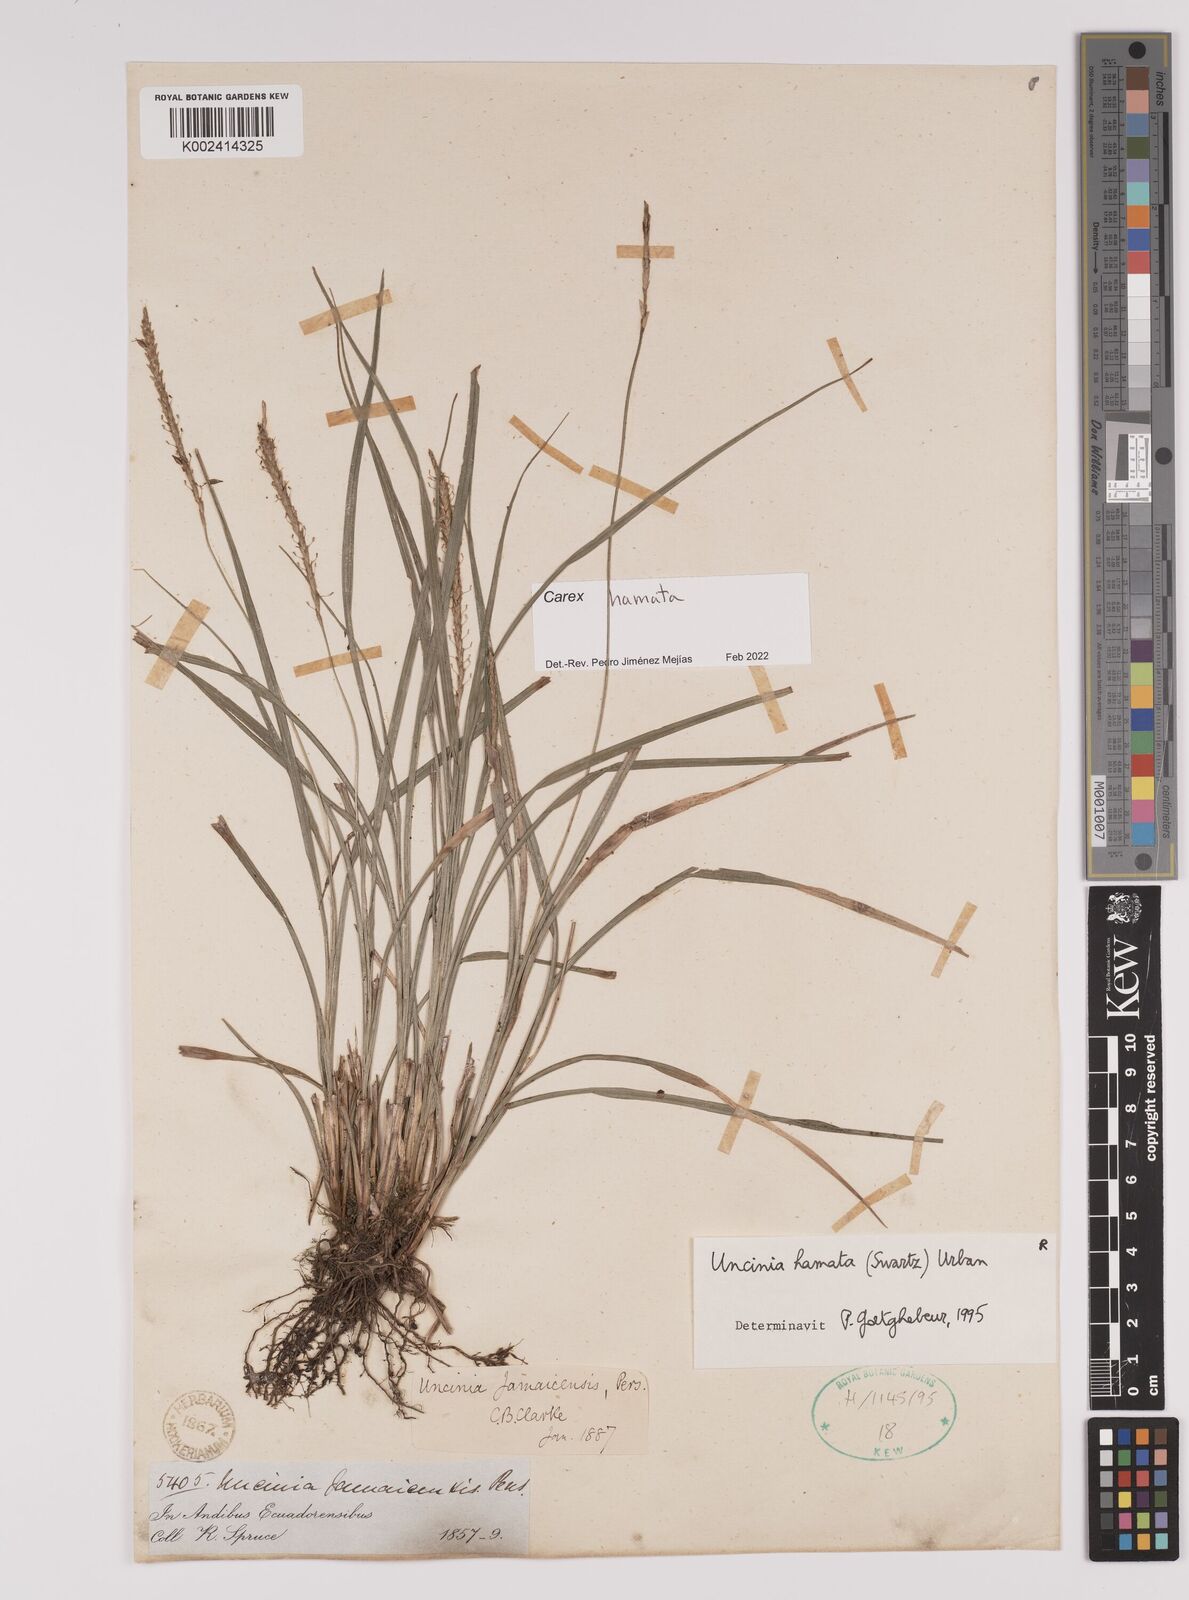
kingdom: Plantae
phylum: Tracheophyta
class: Liliopsida
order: Poales
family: Cyperaceae
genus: Carex
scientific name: Carex hamata
